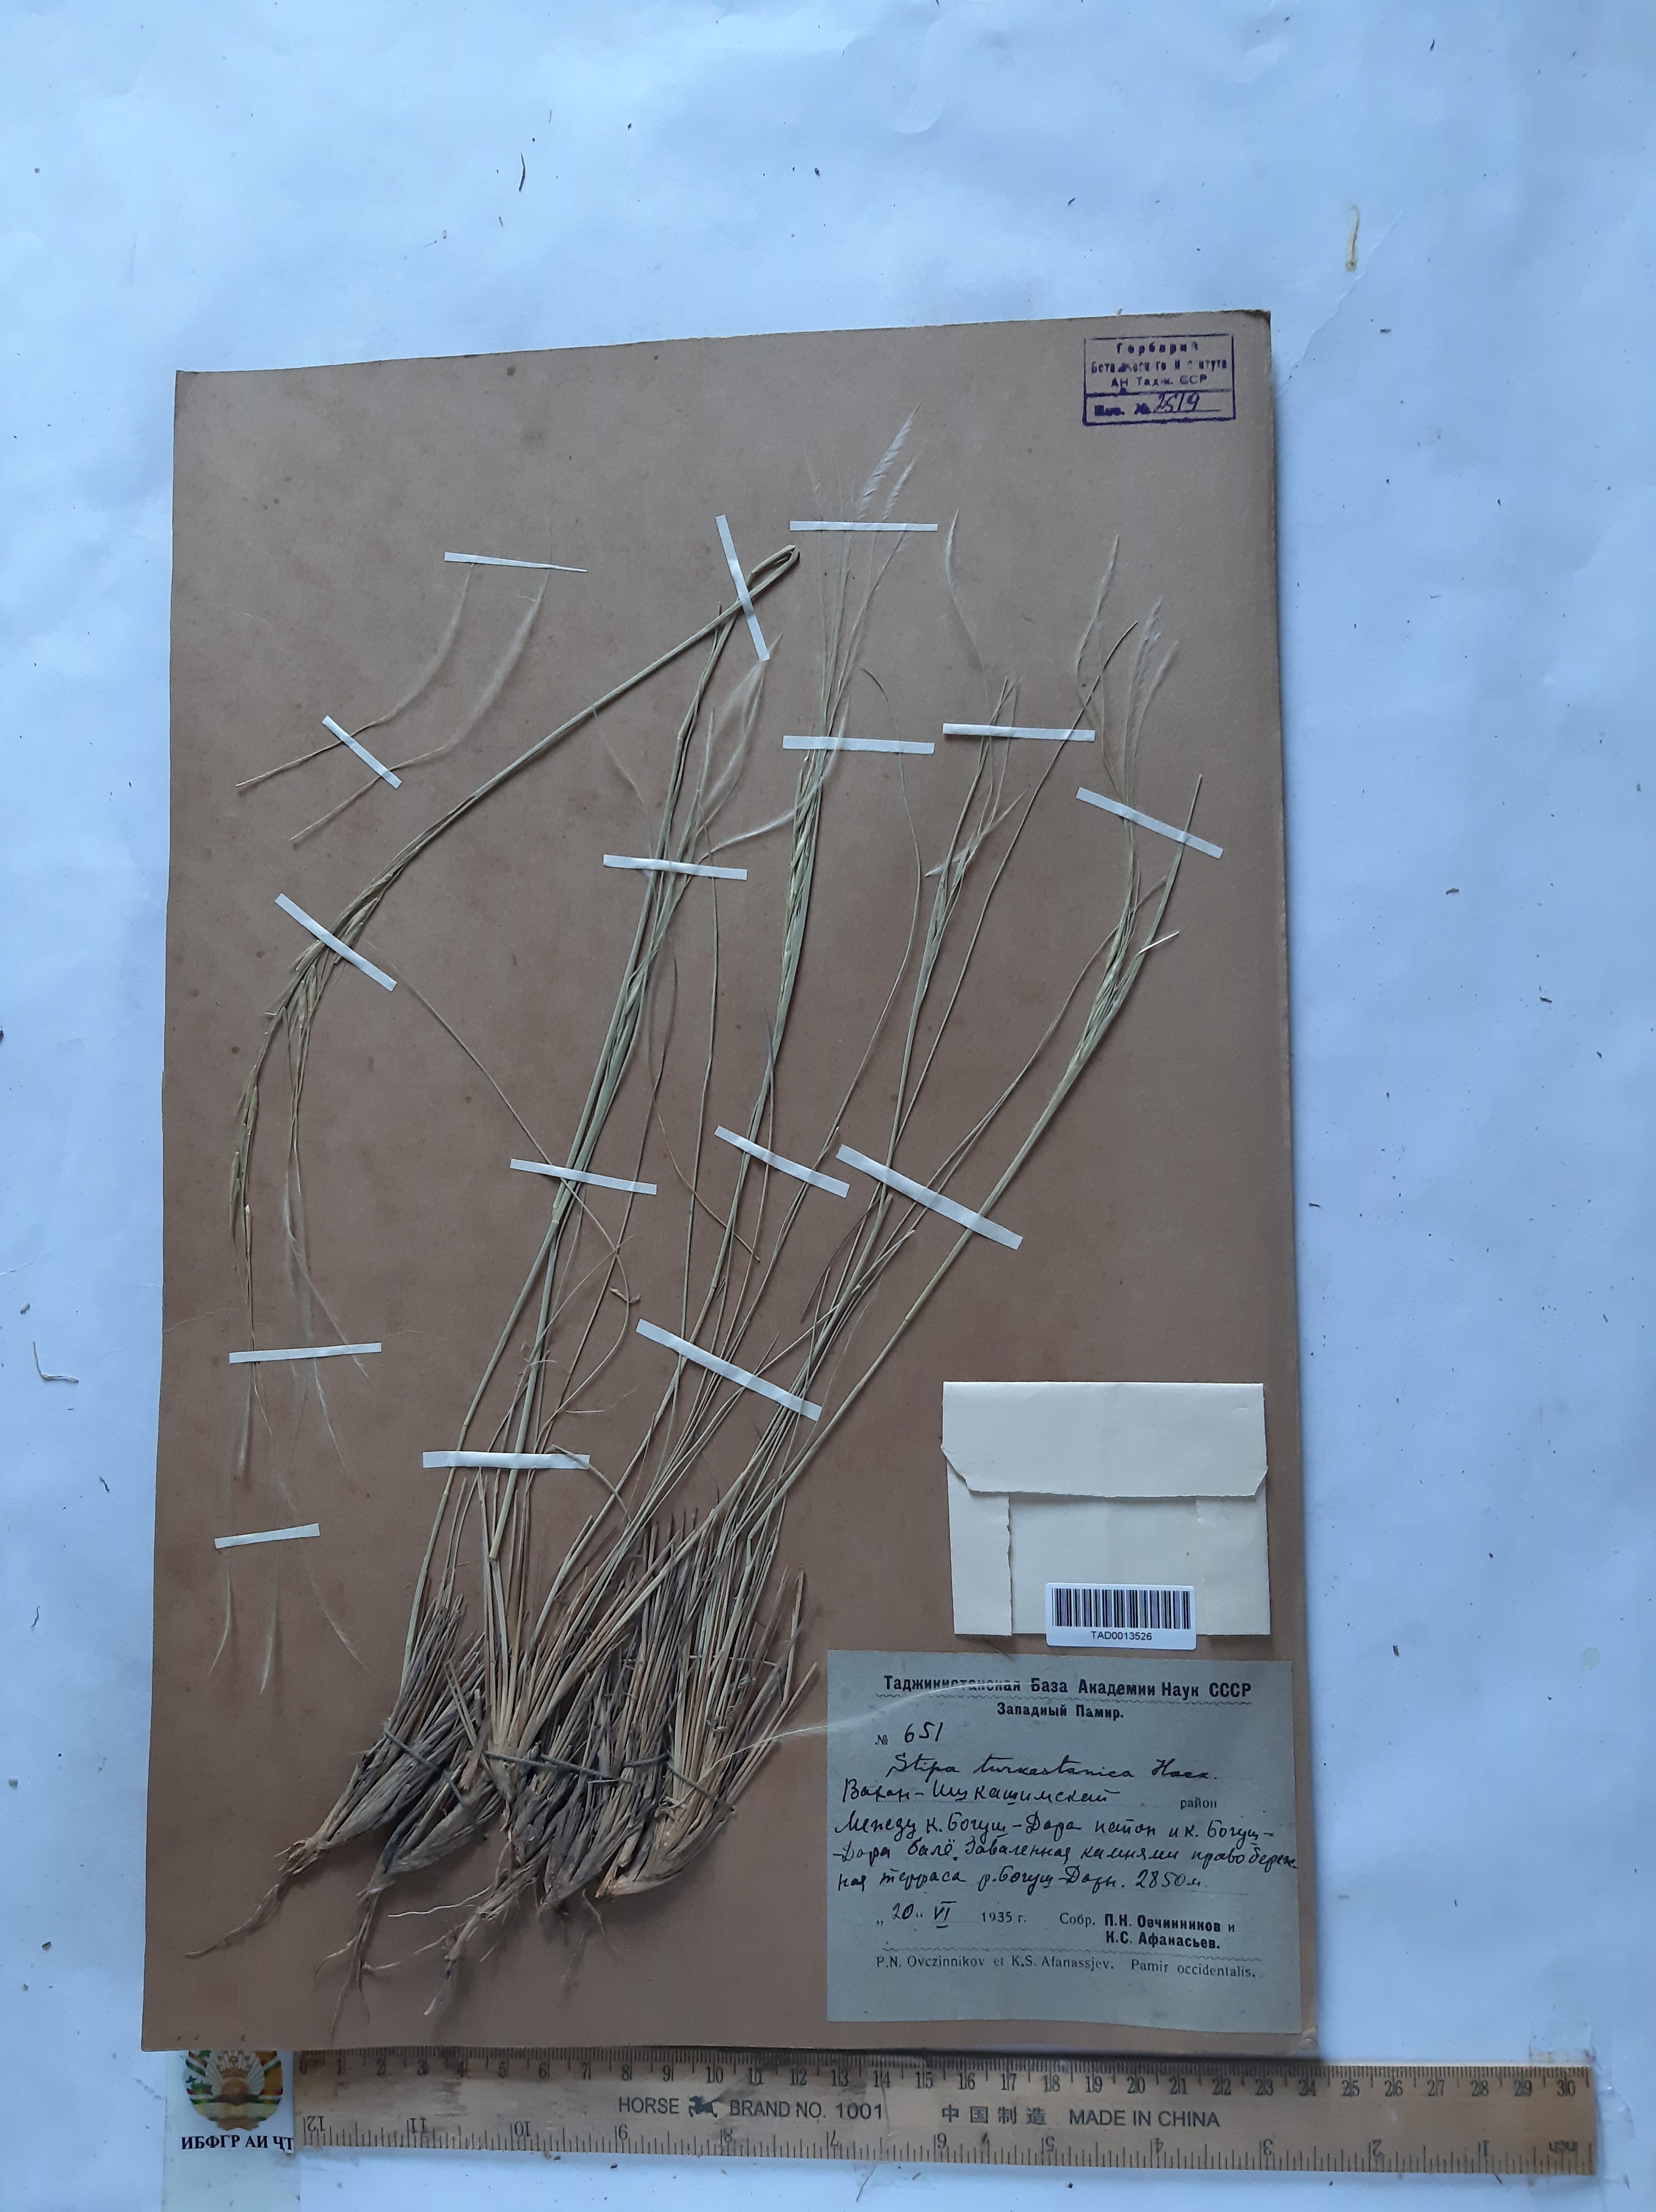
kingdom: Plantae
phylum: Tracheophyta
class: Liliopsida
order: Poales
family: Poaceae
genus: Stipa
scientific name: Stipa turkestanica
